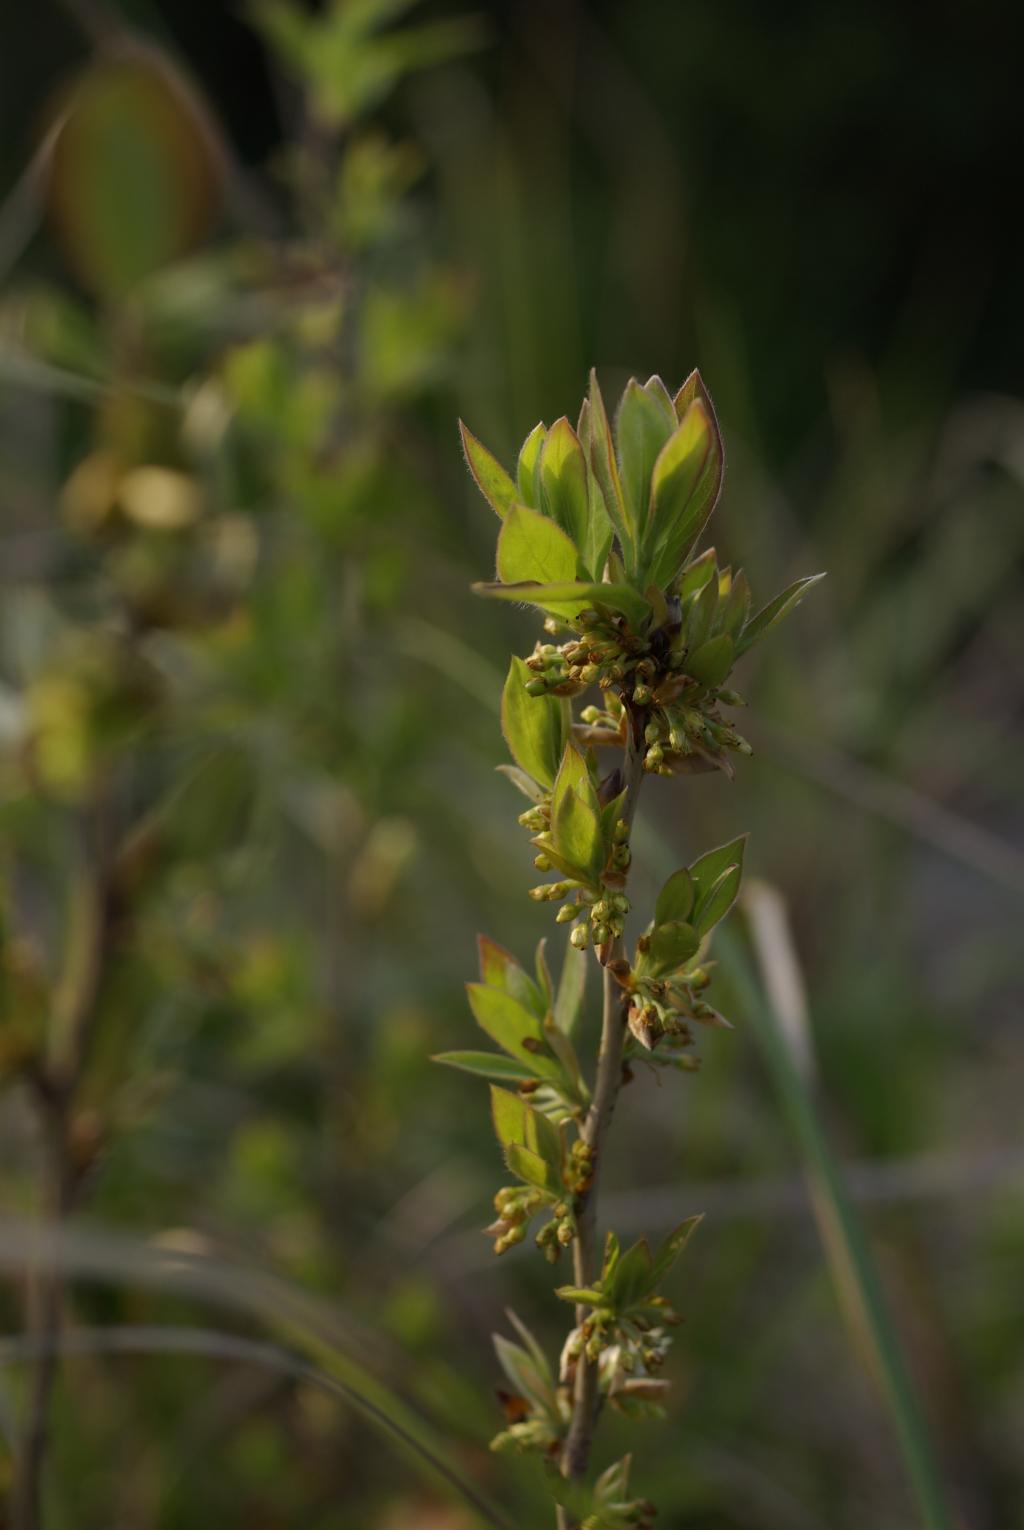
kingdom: Plantae
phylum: Tracheophyta
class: Magnoliopsida
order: Laurales
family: Lauraceae
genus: Lindera
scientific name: Lindera glauca
